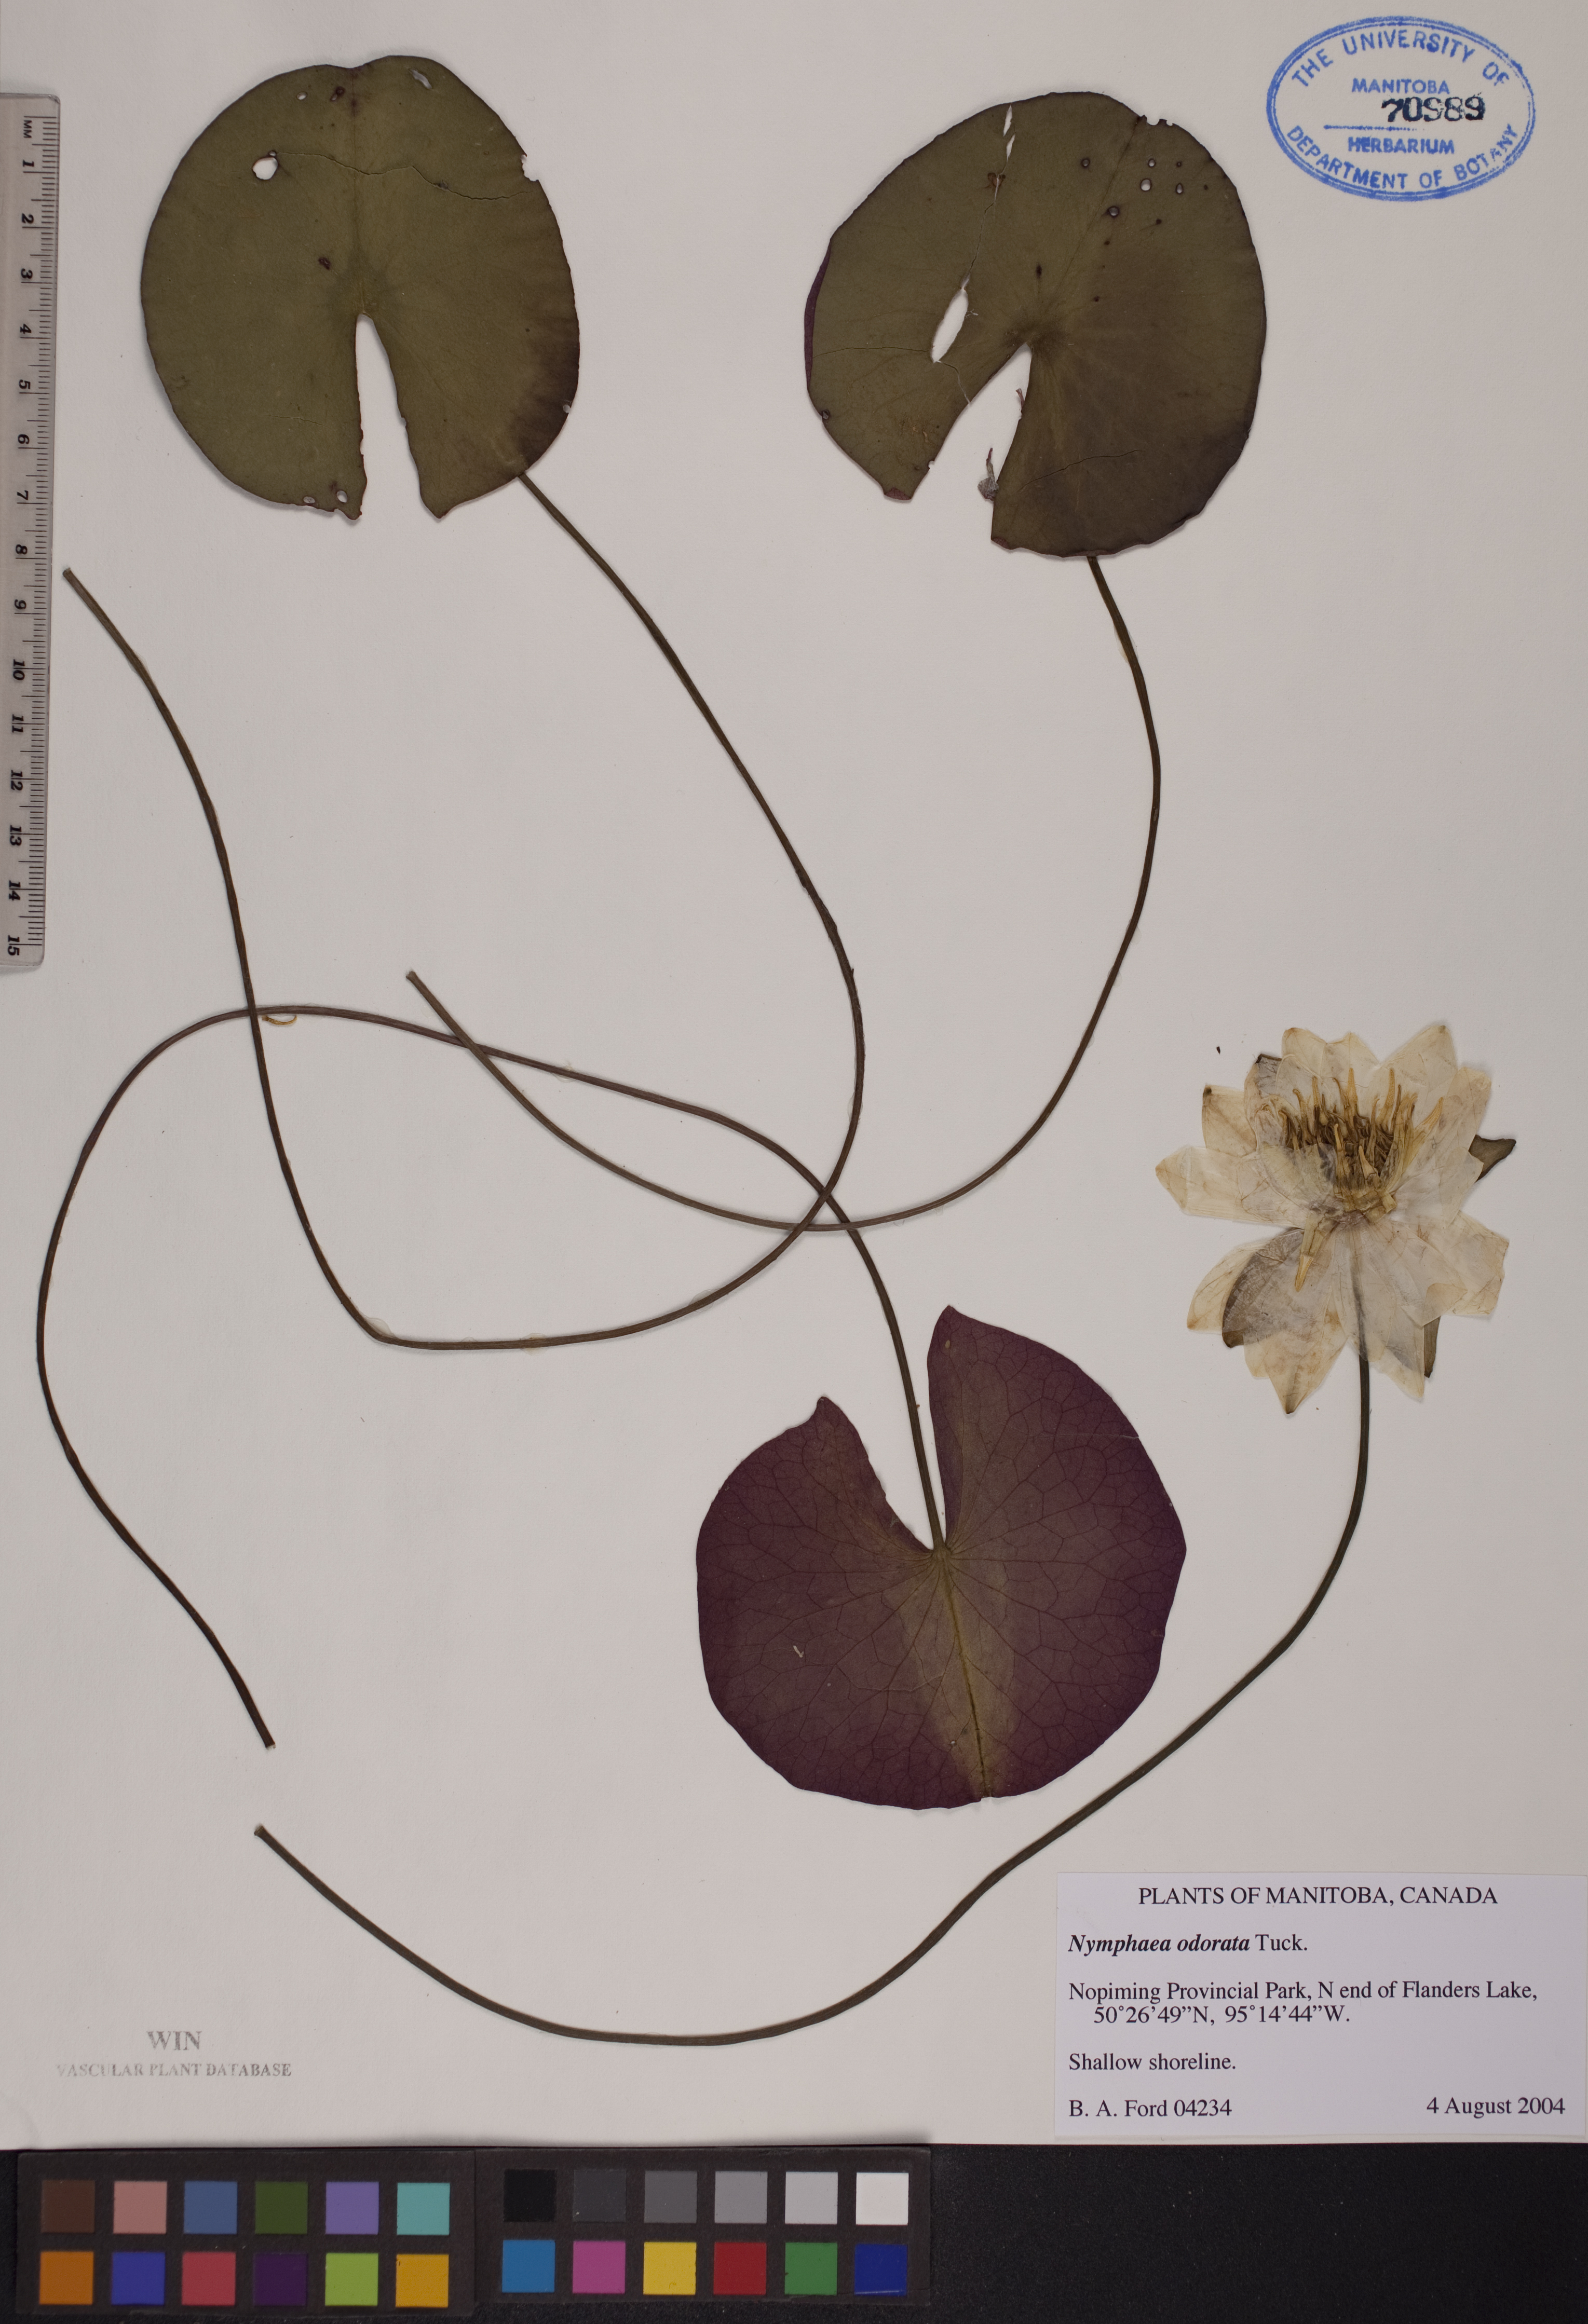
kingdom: Plantae
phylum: Tracheophyta
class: Magnoliopsida
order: Nymphaeales
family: Nymphaeaceae
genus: Nymphaea
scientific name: Nymphaea odorata
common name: Fragrant water-lily
